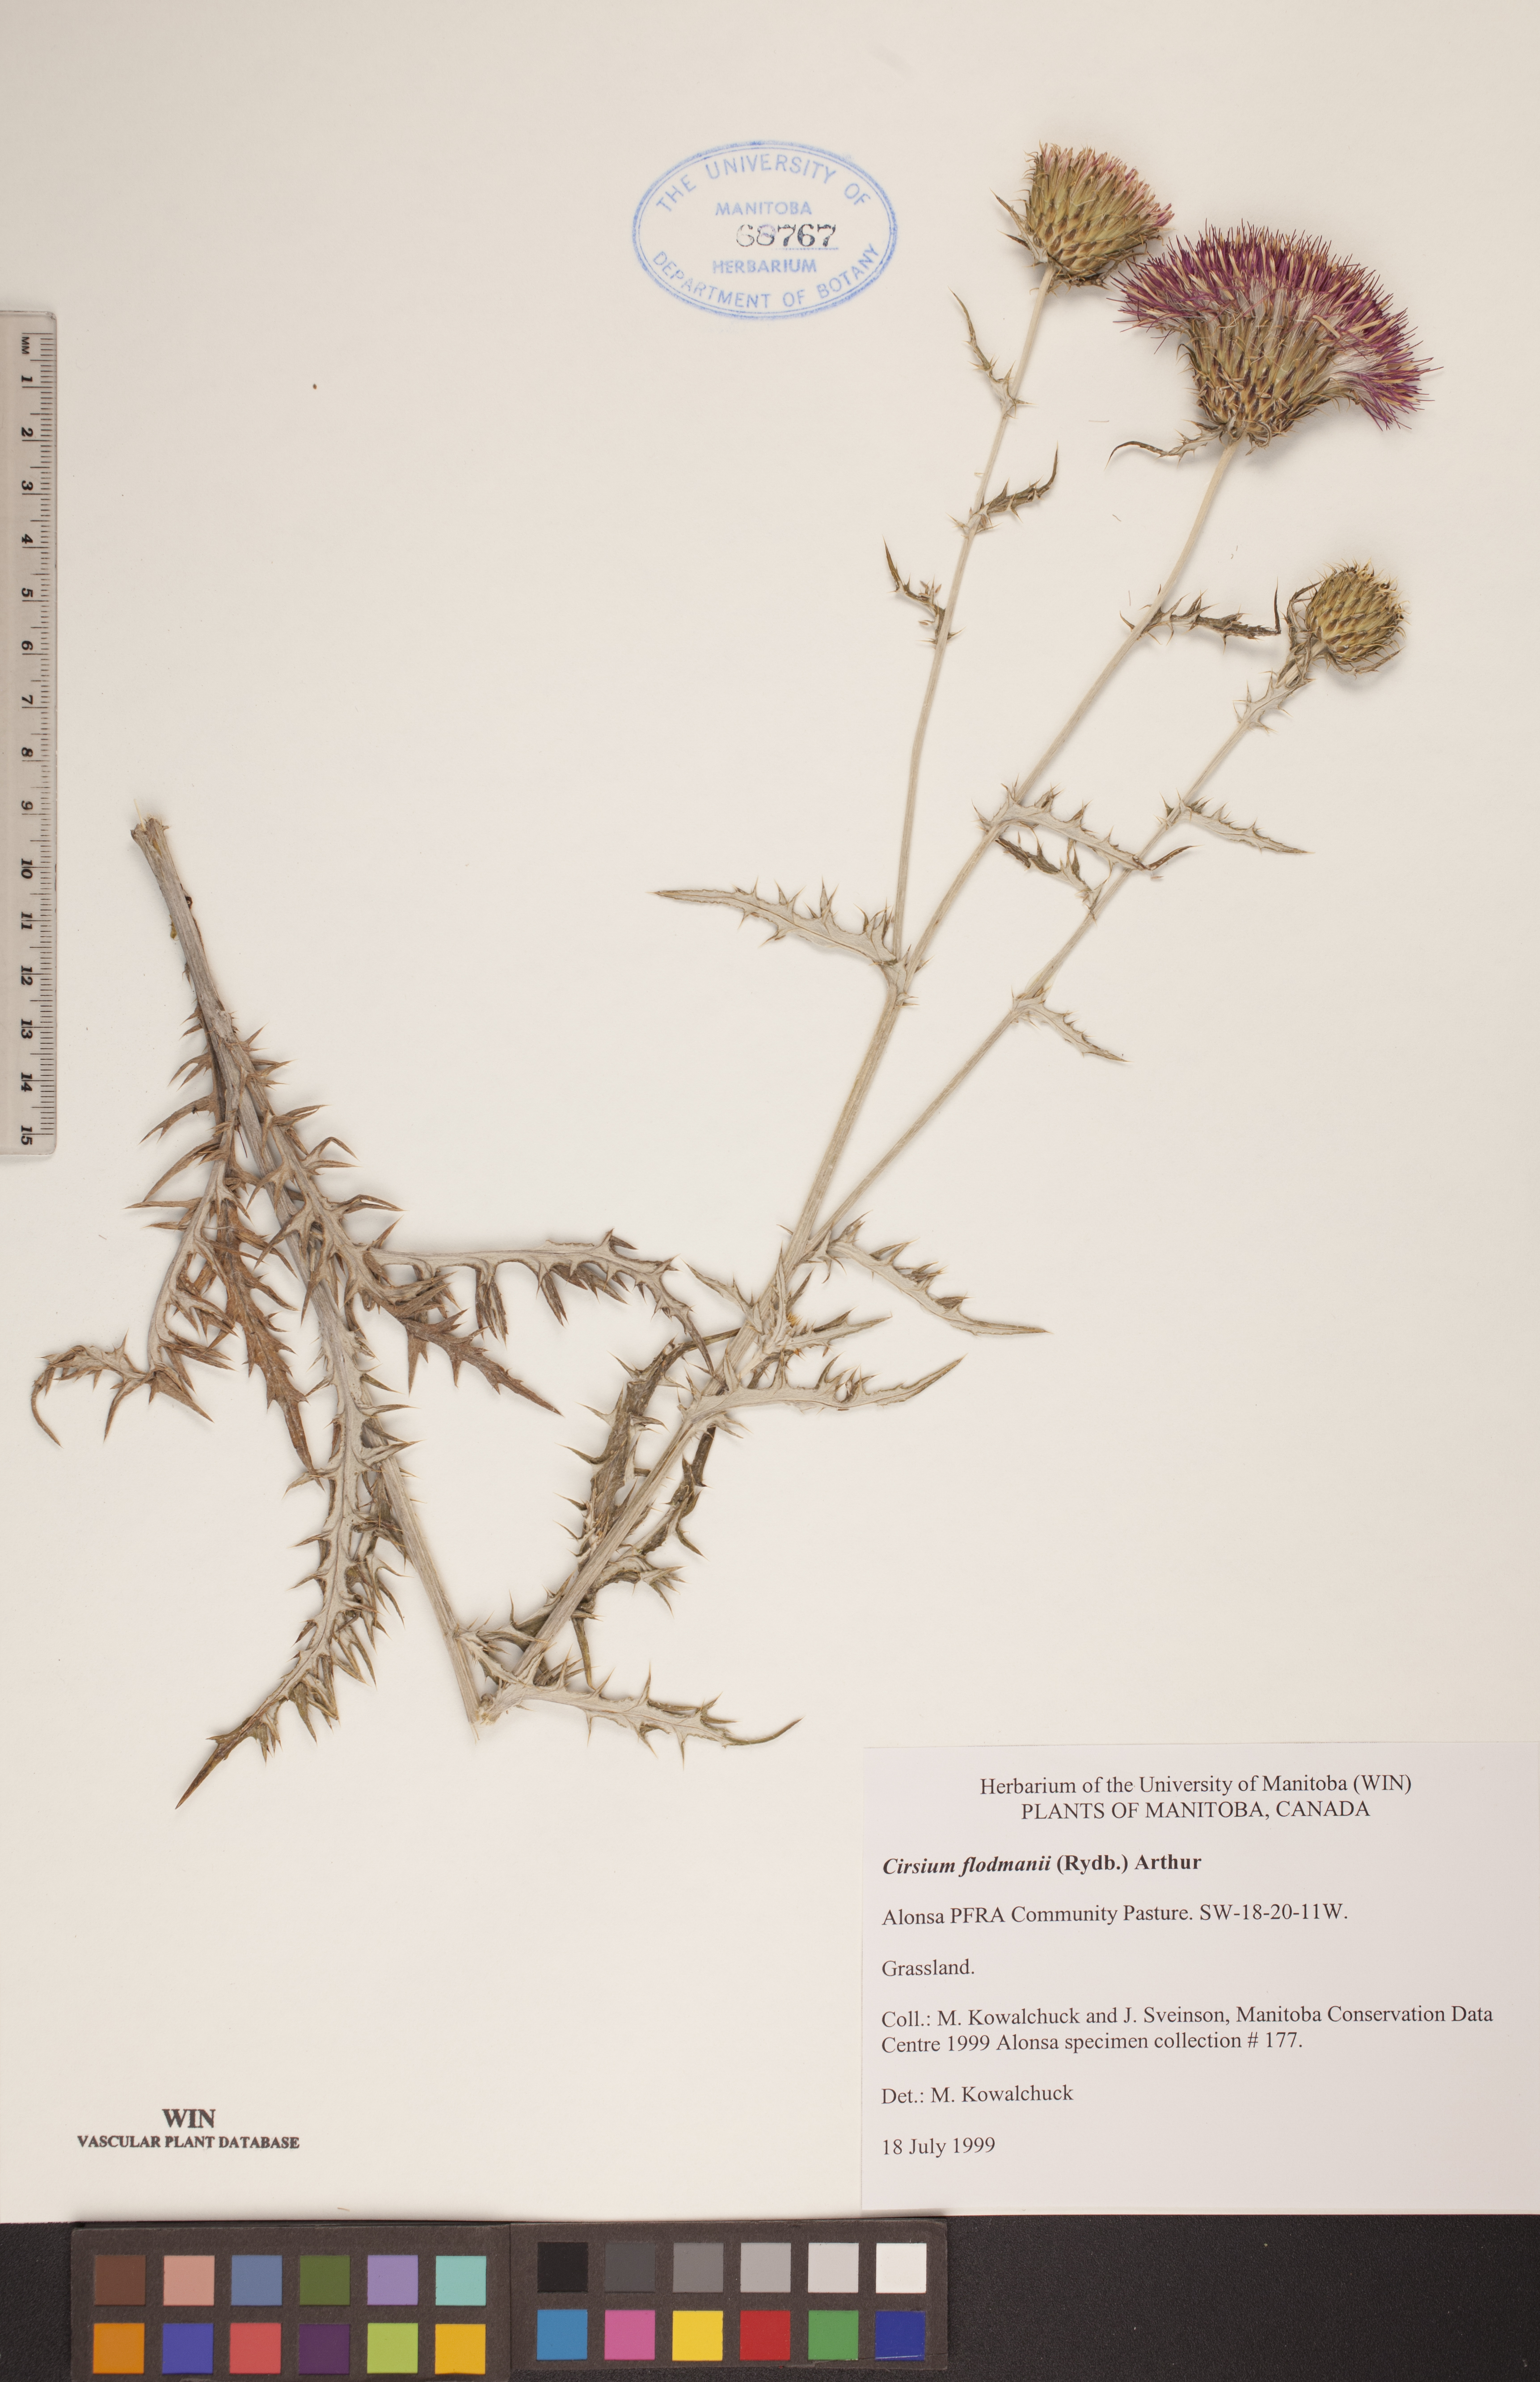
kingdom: Plantae
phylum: Tracheophyta
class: Magnoliopsida
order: Asterales
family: Asteraceae
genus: Cirsium
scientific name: Cirsium flodmanii
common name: Flodman's thistle
